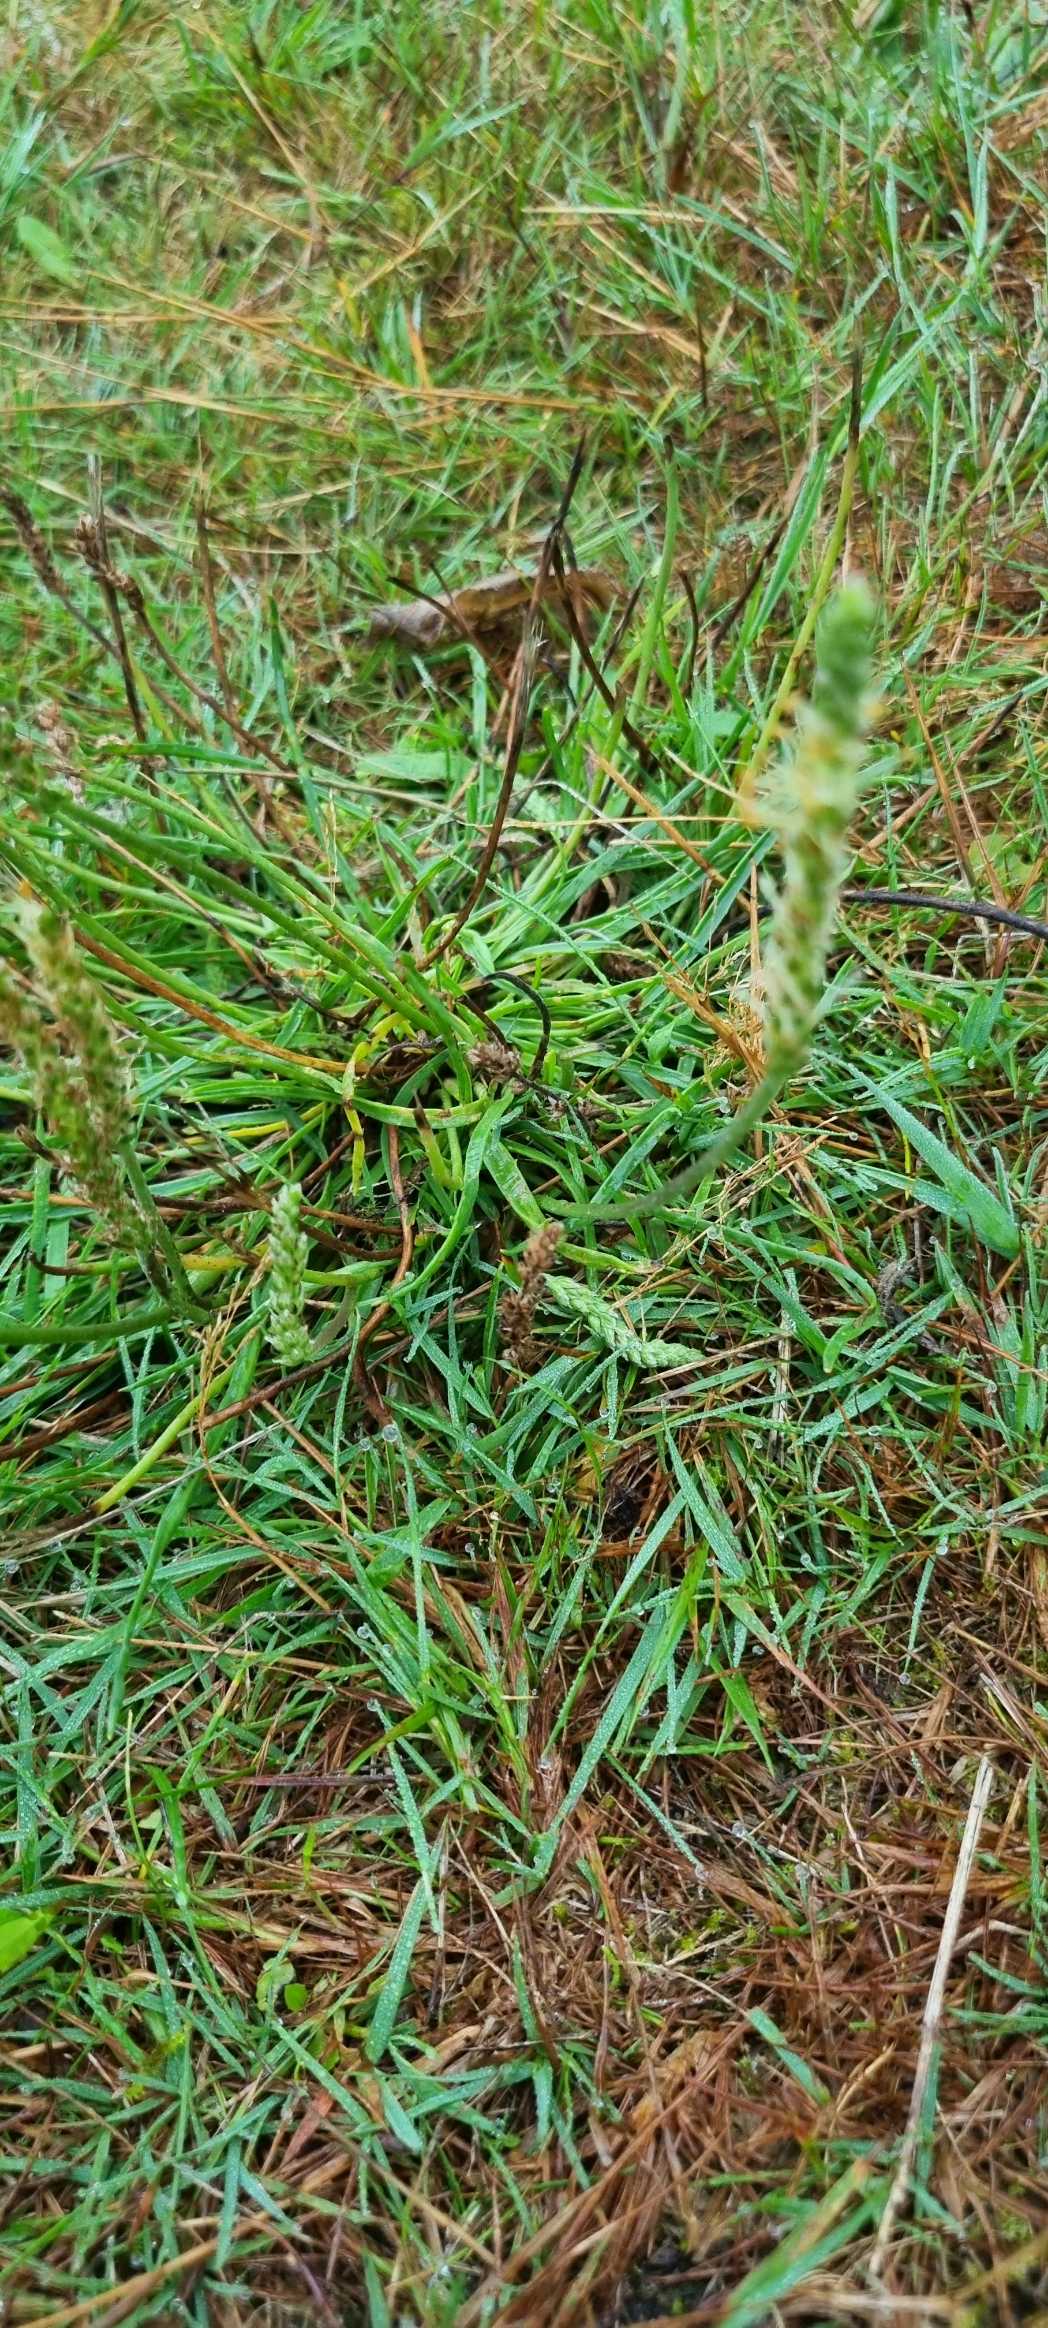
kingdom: Plantae
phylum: Tracheophyta
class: Magnoliopsida
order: Lamiales
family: Plantaginaceae
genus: Plantago
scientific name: Plantago maritima
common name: Strand-vejbred
